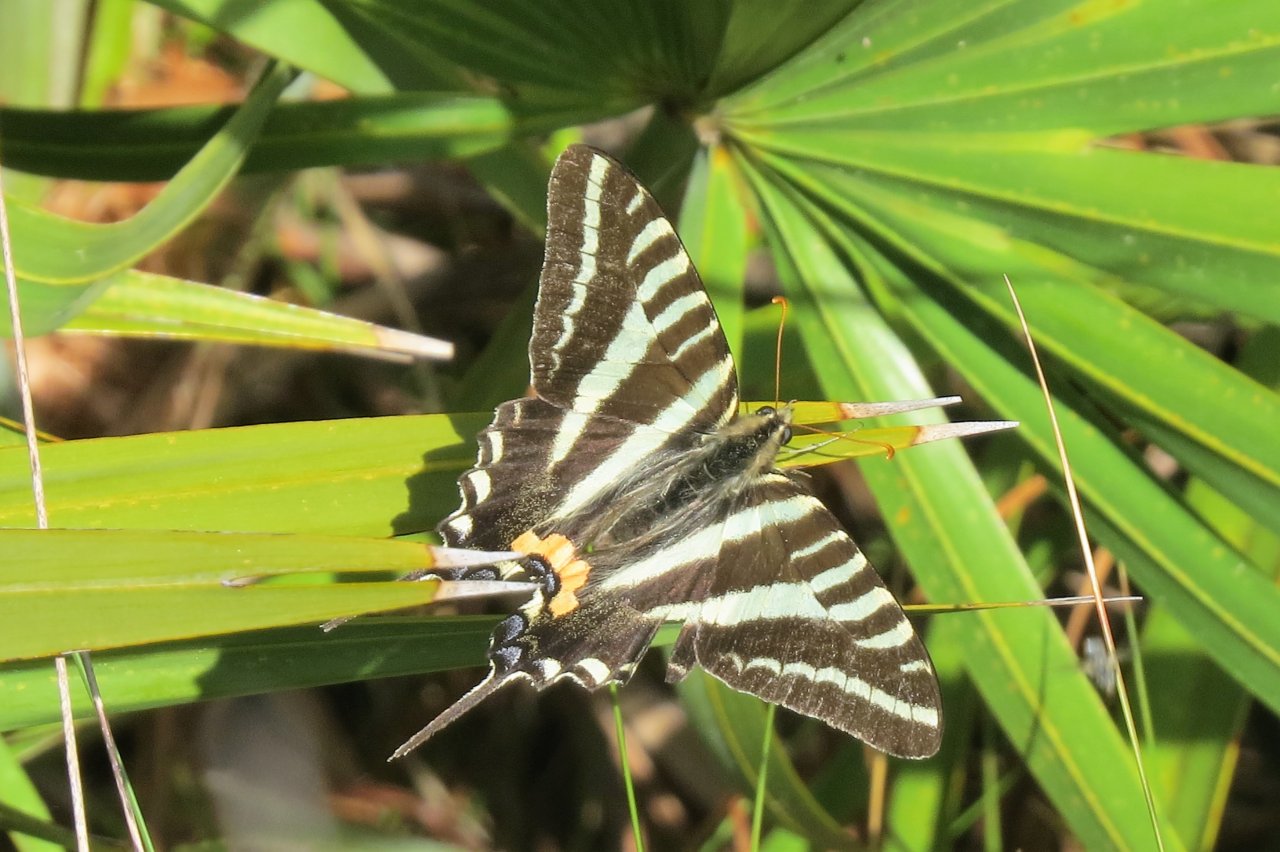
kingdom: Animalia
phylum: Arthropoda
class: Insecta
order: Lepidoptera
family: Papilionidae
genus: Protographium
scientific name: Protographium marcellus
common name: Zebra Swallowtail
